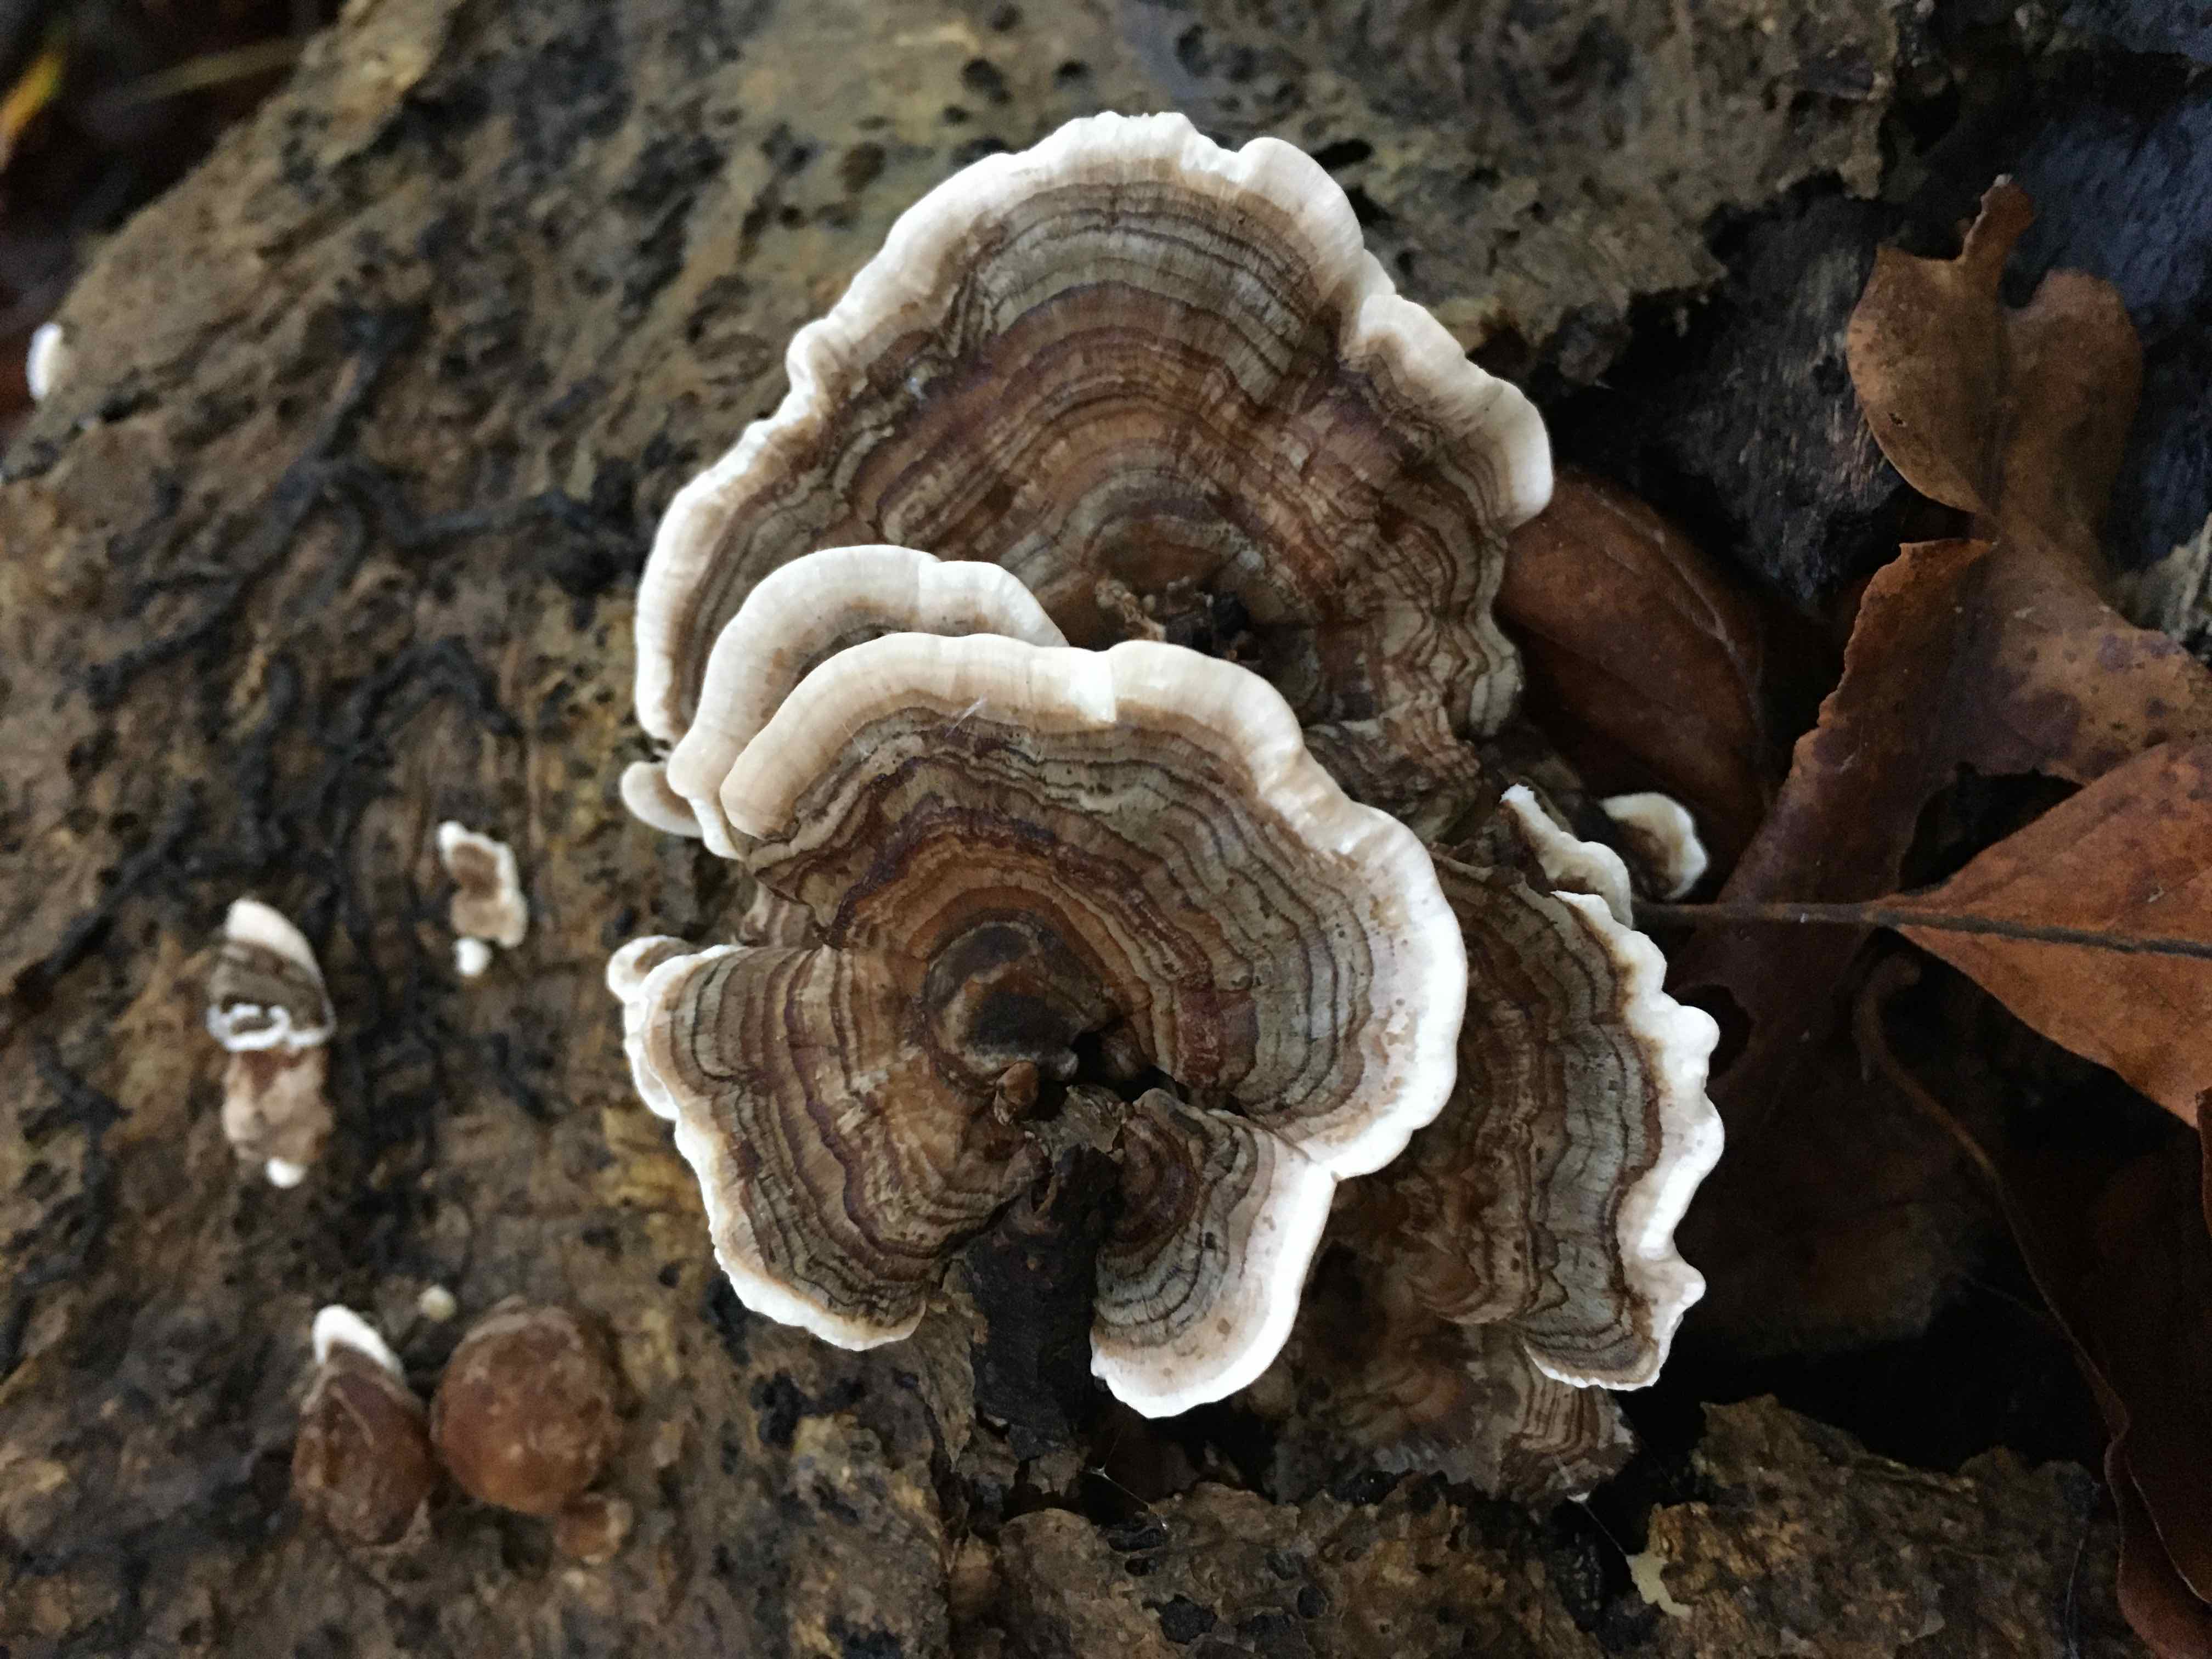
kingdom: Fungi
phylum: Basidiomycota
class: Agaricomycetes
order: Polyporales
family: Polyporaceae
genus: Trametes
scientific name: Trametes versicolor
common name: broget læderporesvamp
